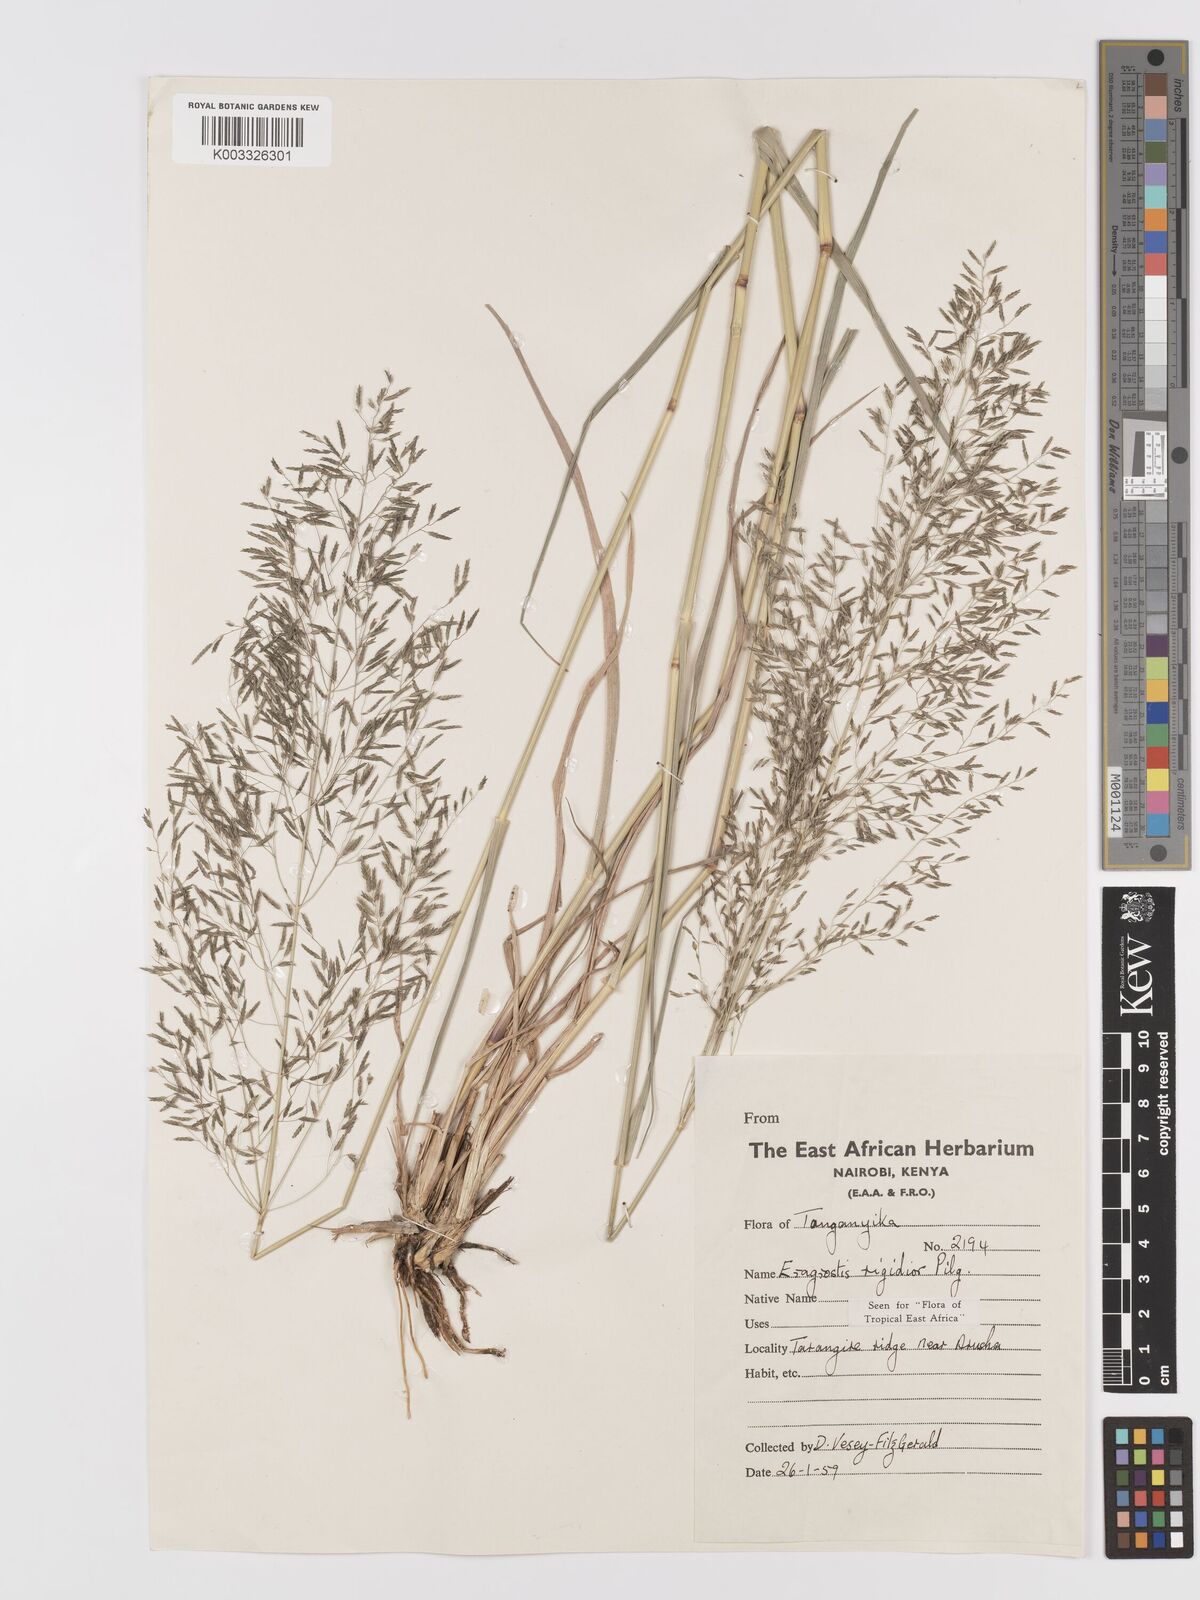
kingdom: Plantae
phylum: Tracheophyta
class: Liliopsida
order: Poales
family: Poaceae
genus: Eragrostis
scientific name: Eragrostis cylindriflora
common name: Cylinderflower lovegrass
